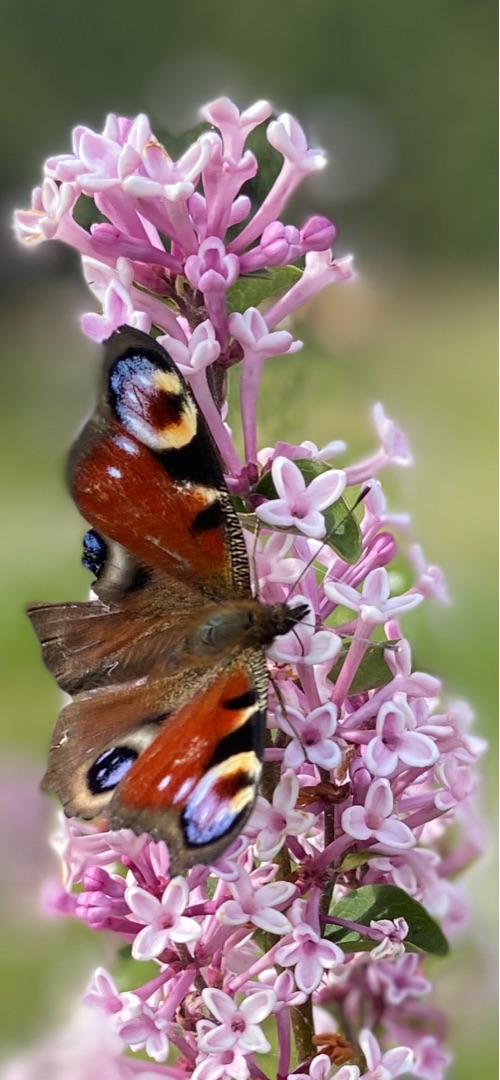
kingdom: Animalia
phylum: Arthropoda
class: Insecta
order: Lepidoptera
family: Nymphalidae
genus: Aglais
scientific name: Aglais io
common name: Dagpåfugleøje
